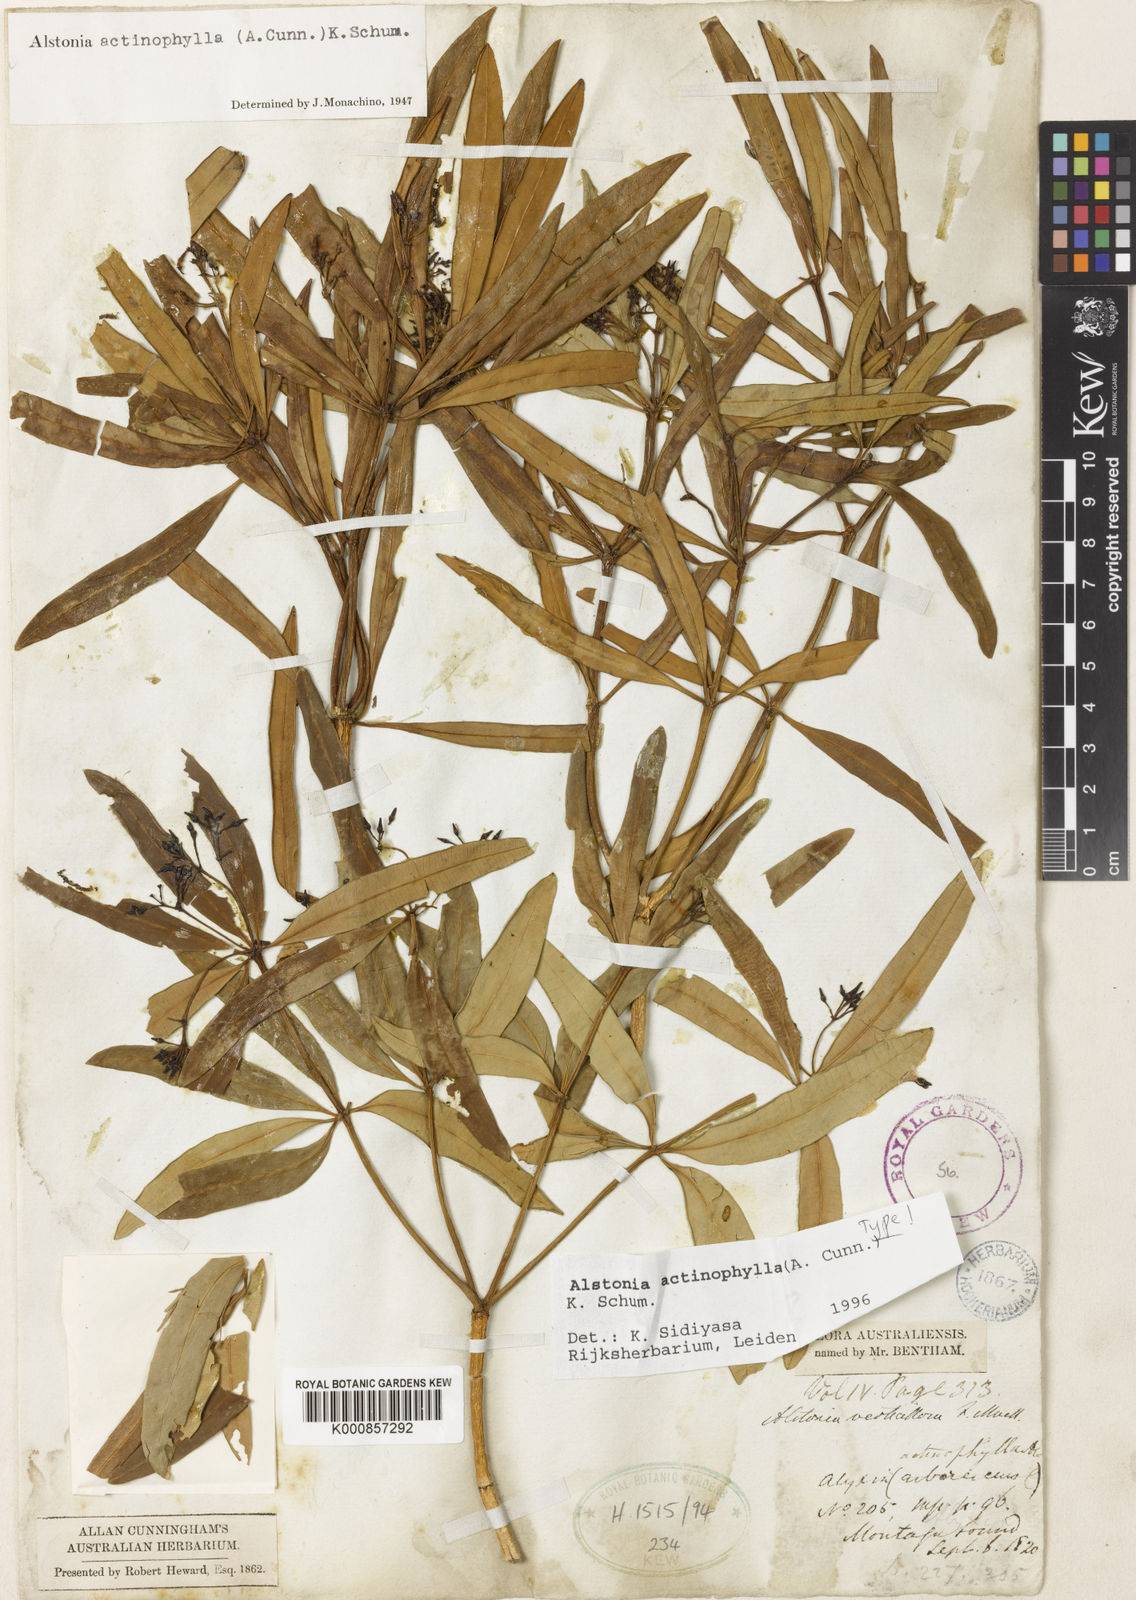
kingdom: Plantae
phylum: Tracheophyta
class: Magnoliopsida
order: Gentianales
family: Apocynaceae
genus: Alstonia
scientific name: Alstonia actinophylla
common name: Milkwood
